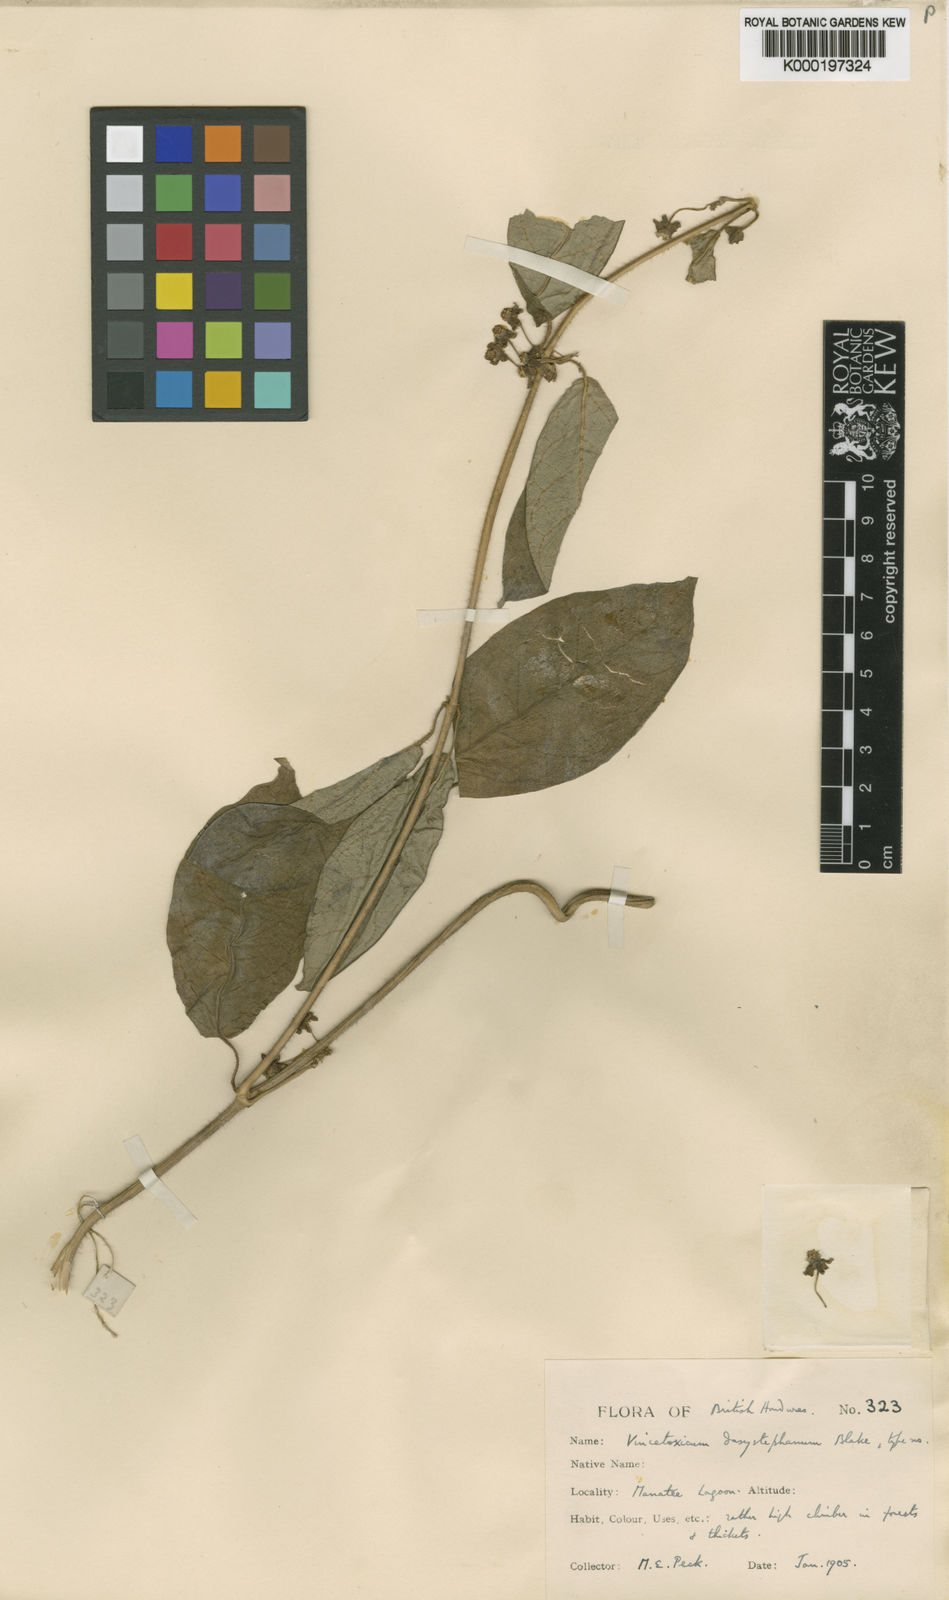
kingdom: Plantae
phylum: Tracheophyta
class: Magnoliopsida
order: Gentianales
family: Apocynaceae
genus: Gonolobus
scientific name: Gonolobus dasystephanus
